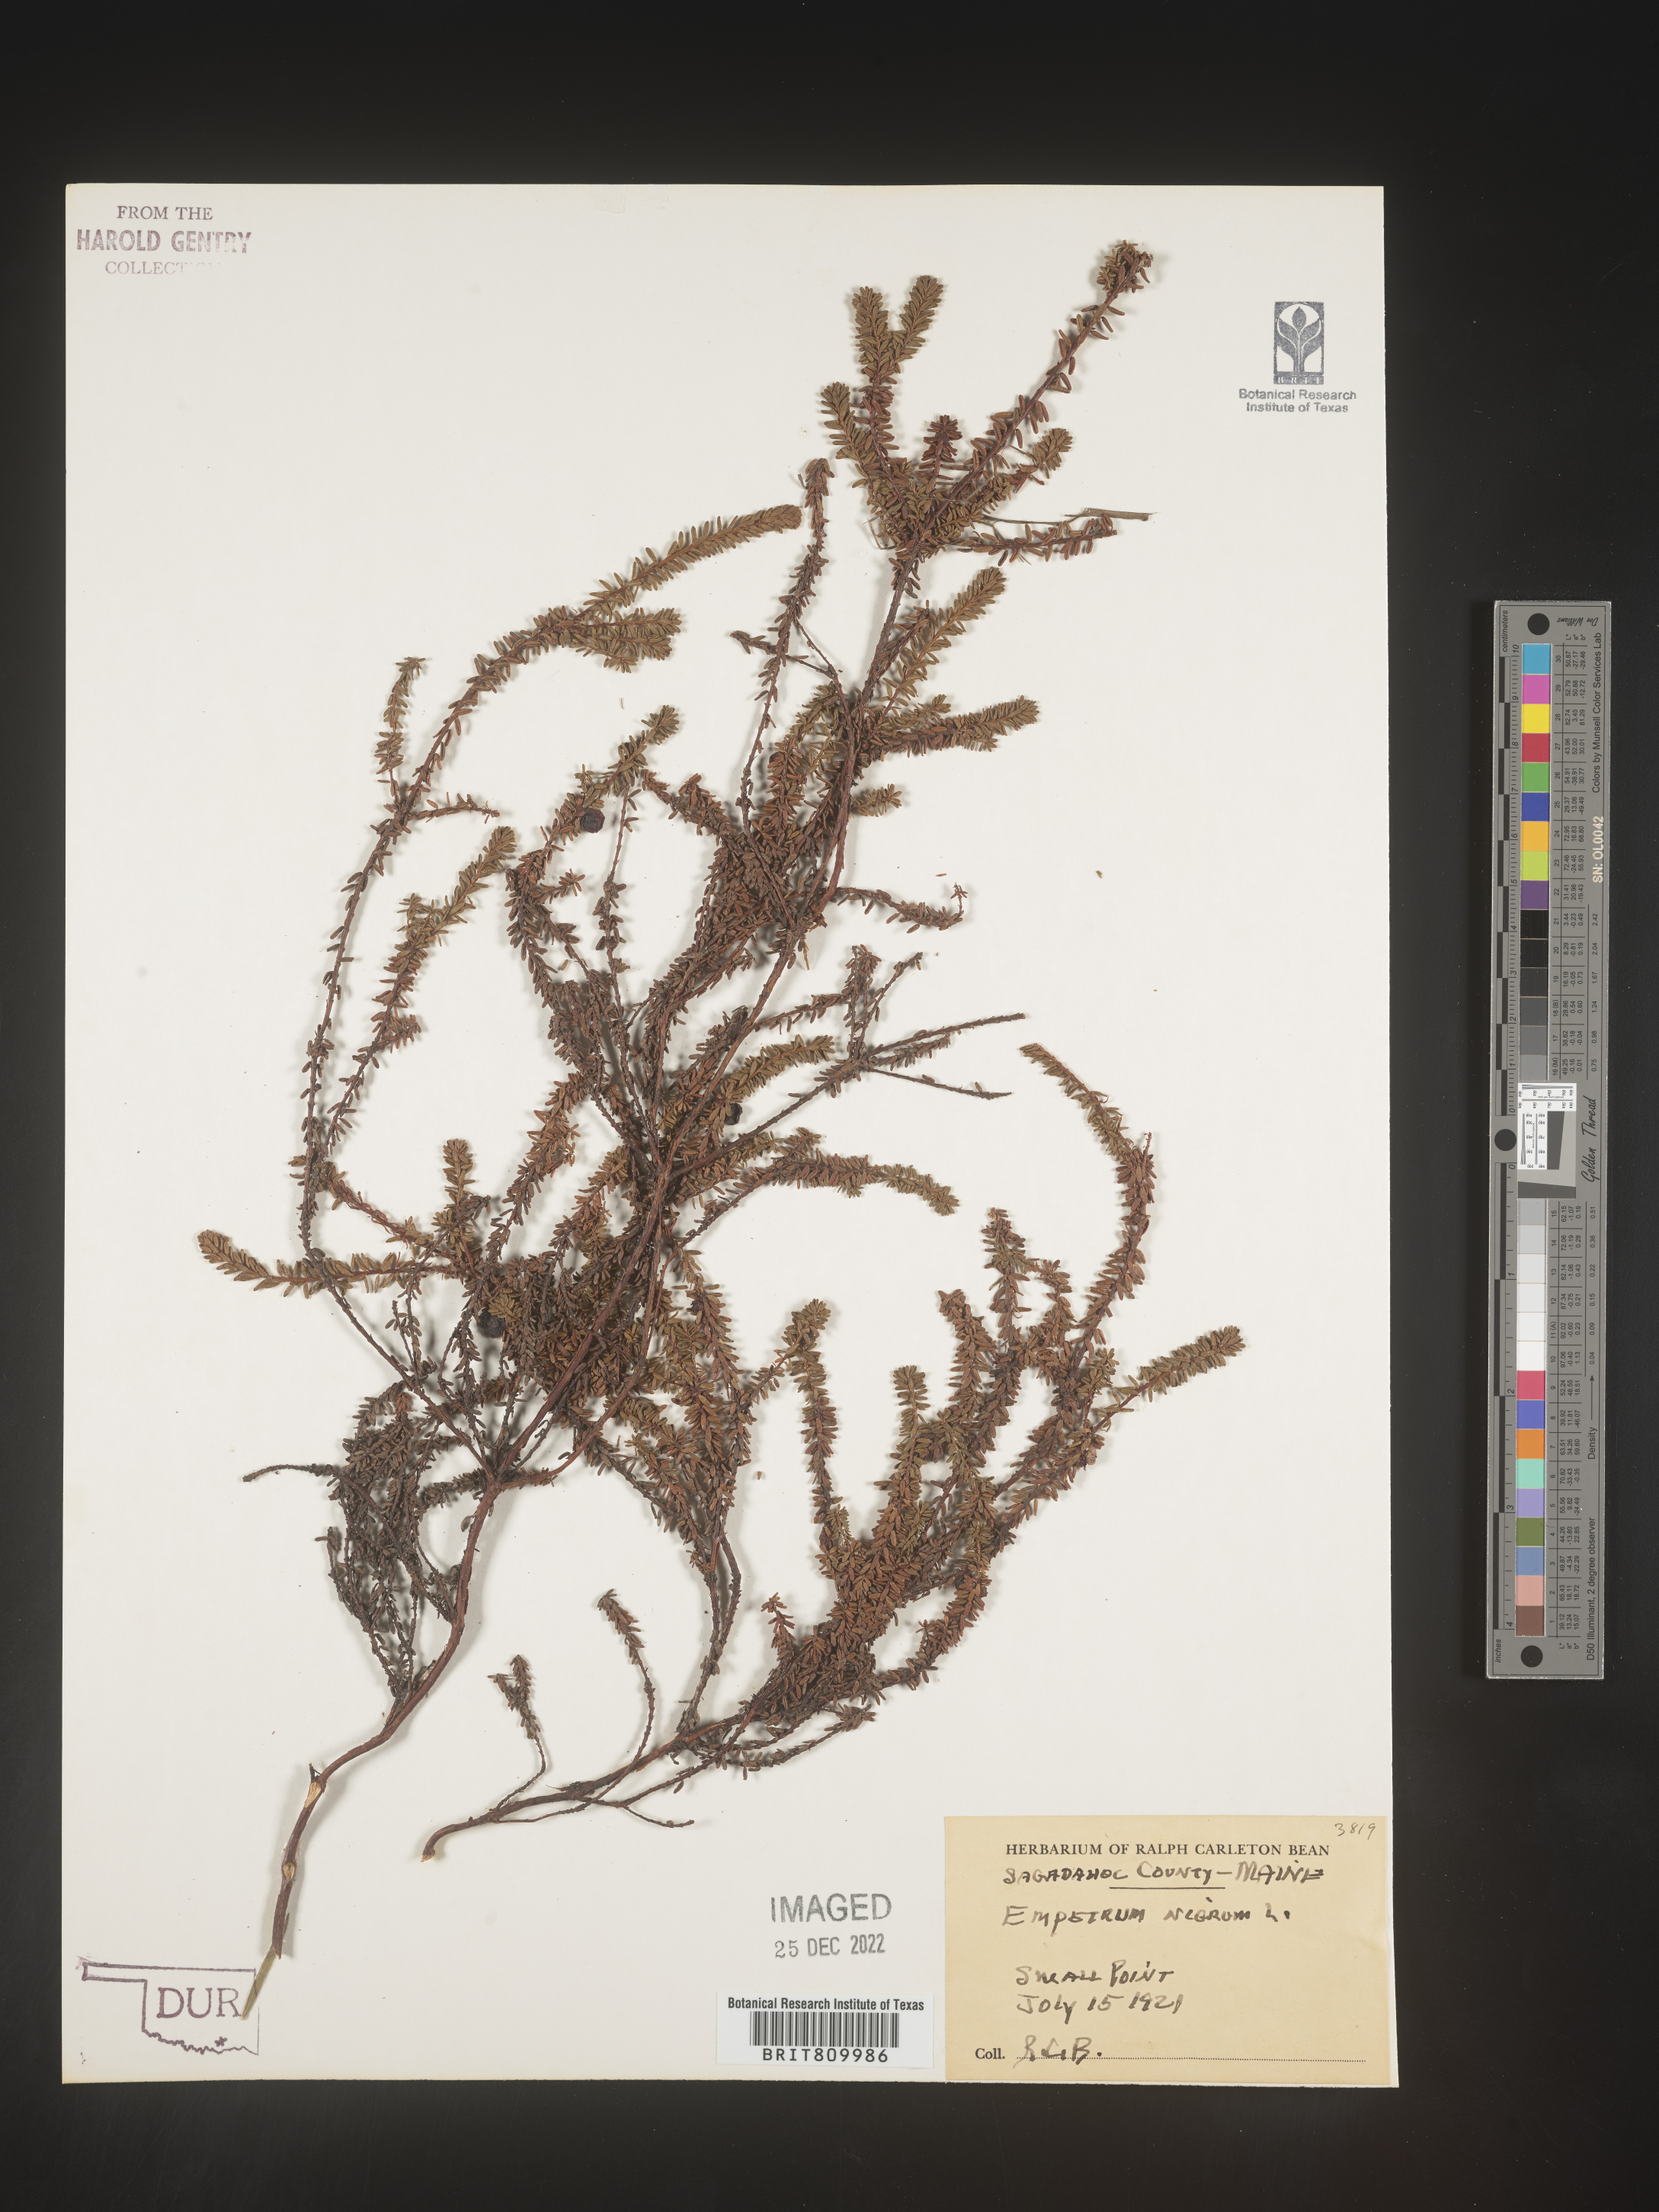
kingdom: Plantae
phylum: Tracheophyta
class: Magnoliopsida
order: Ericales
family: Ericaceae
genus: Empetrum
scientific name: Empetrum
